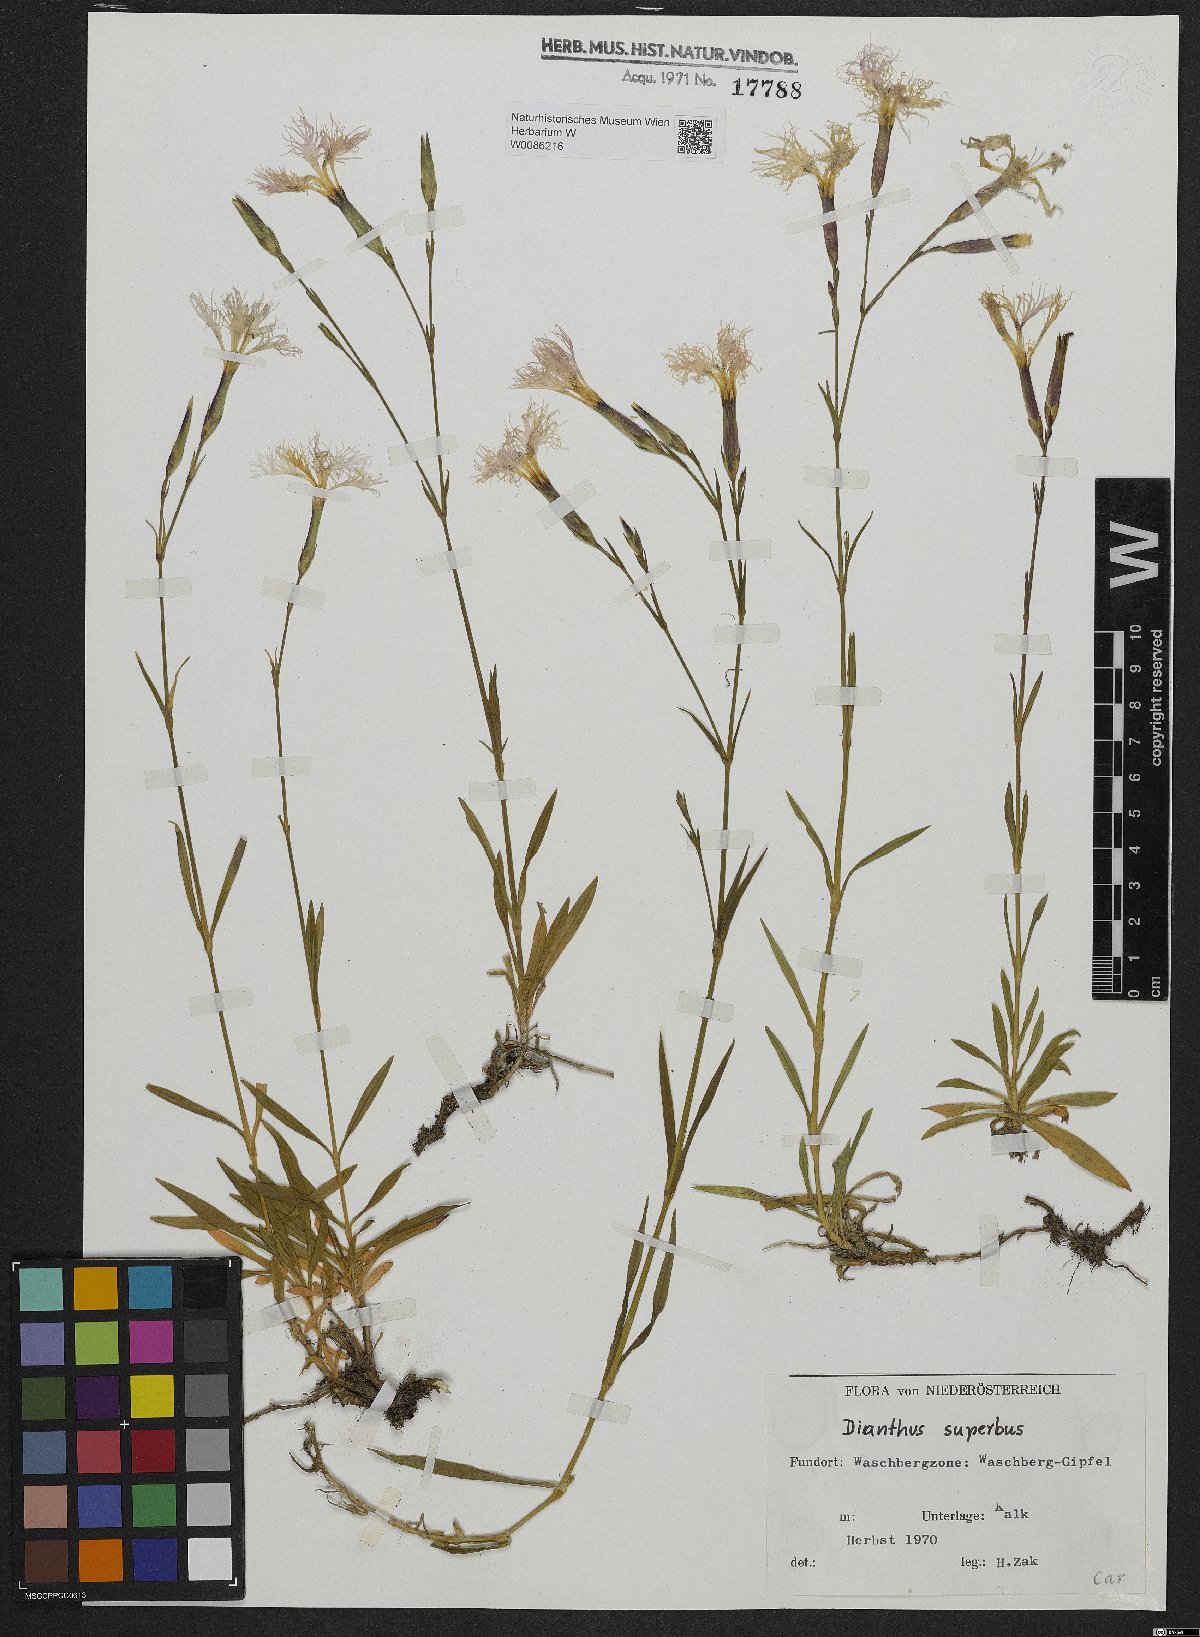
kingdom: Plantae
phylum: Tracheophyta
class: Magnoliopsida
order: Caryophyllales
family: Caryophyllaceae
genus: Dianthus
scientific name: Dianthus superbus
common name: Fringed pink
